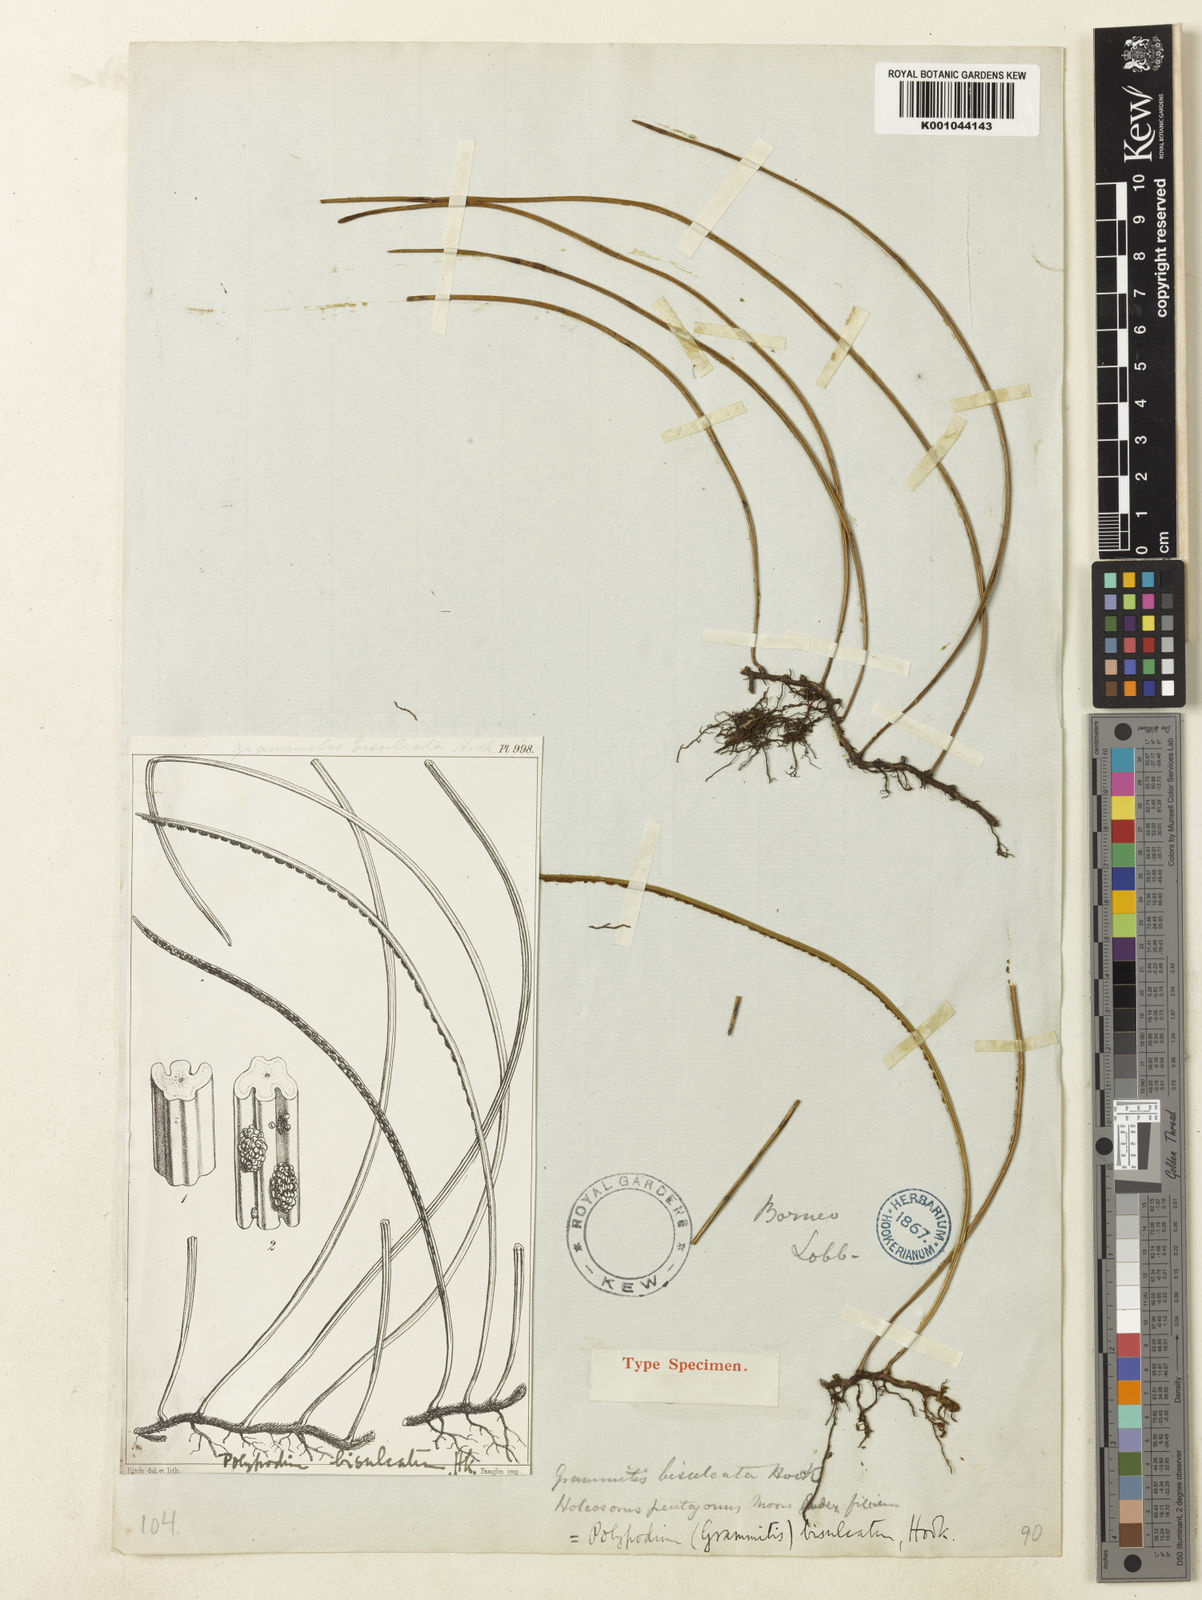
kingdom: Plantae
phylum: Tracheophyta
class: Polypodiopsida
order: Polypodiales
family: Polypodiaceae
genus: Selliguea
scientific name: Selliguea
